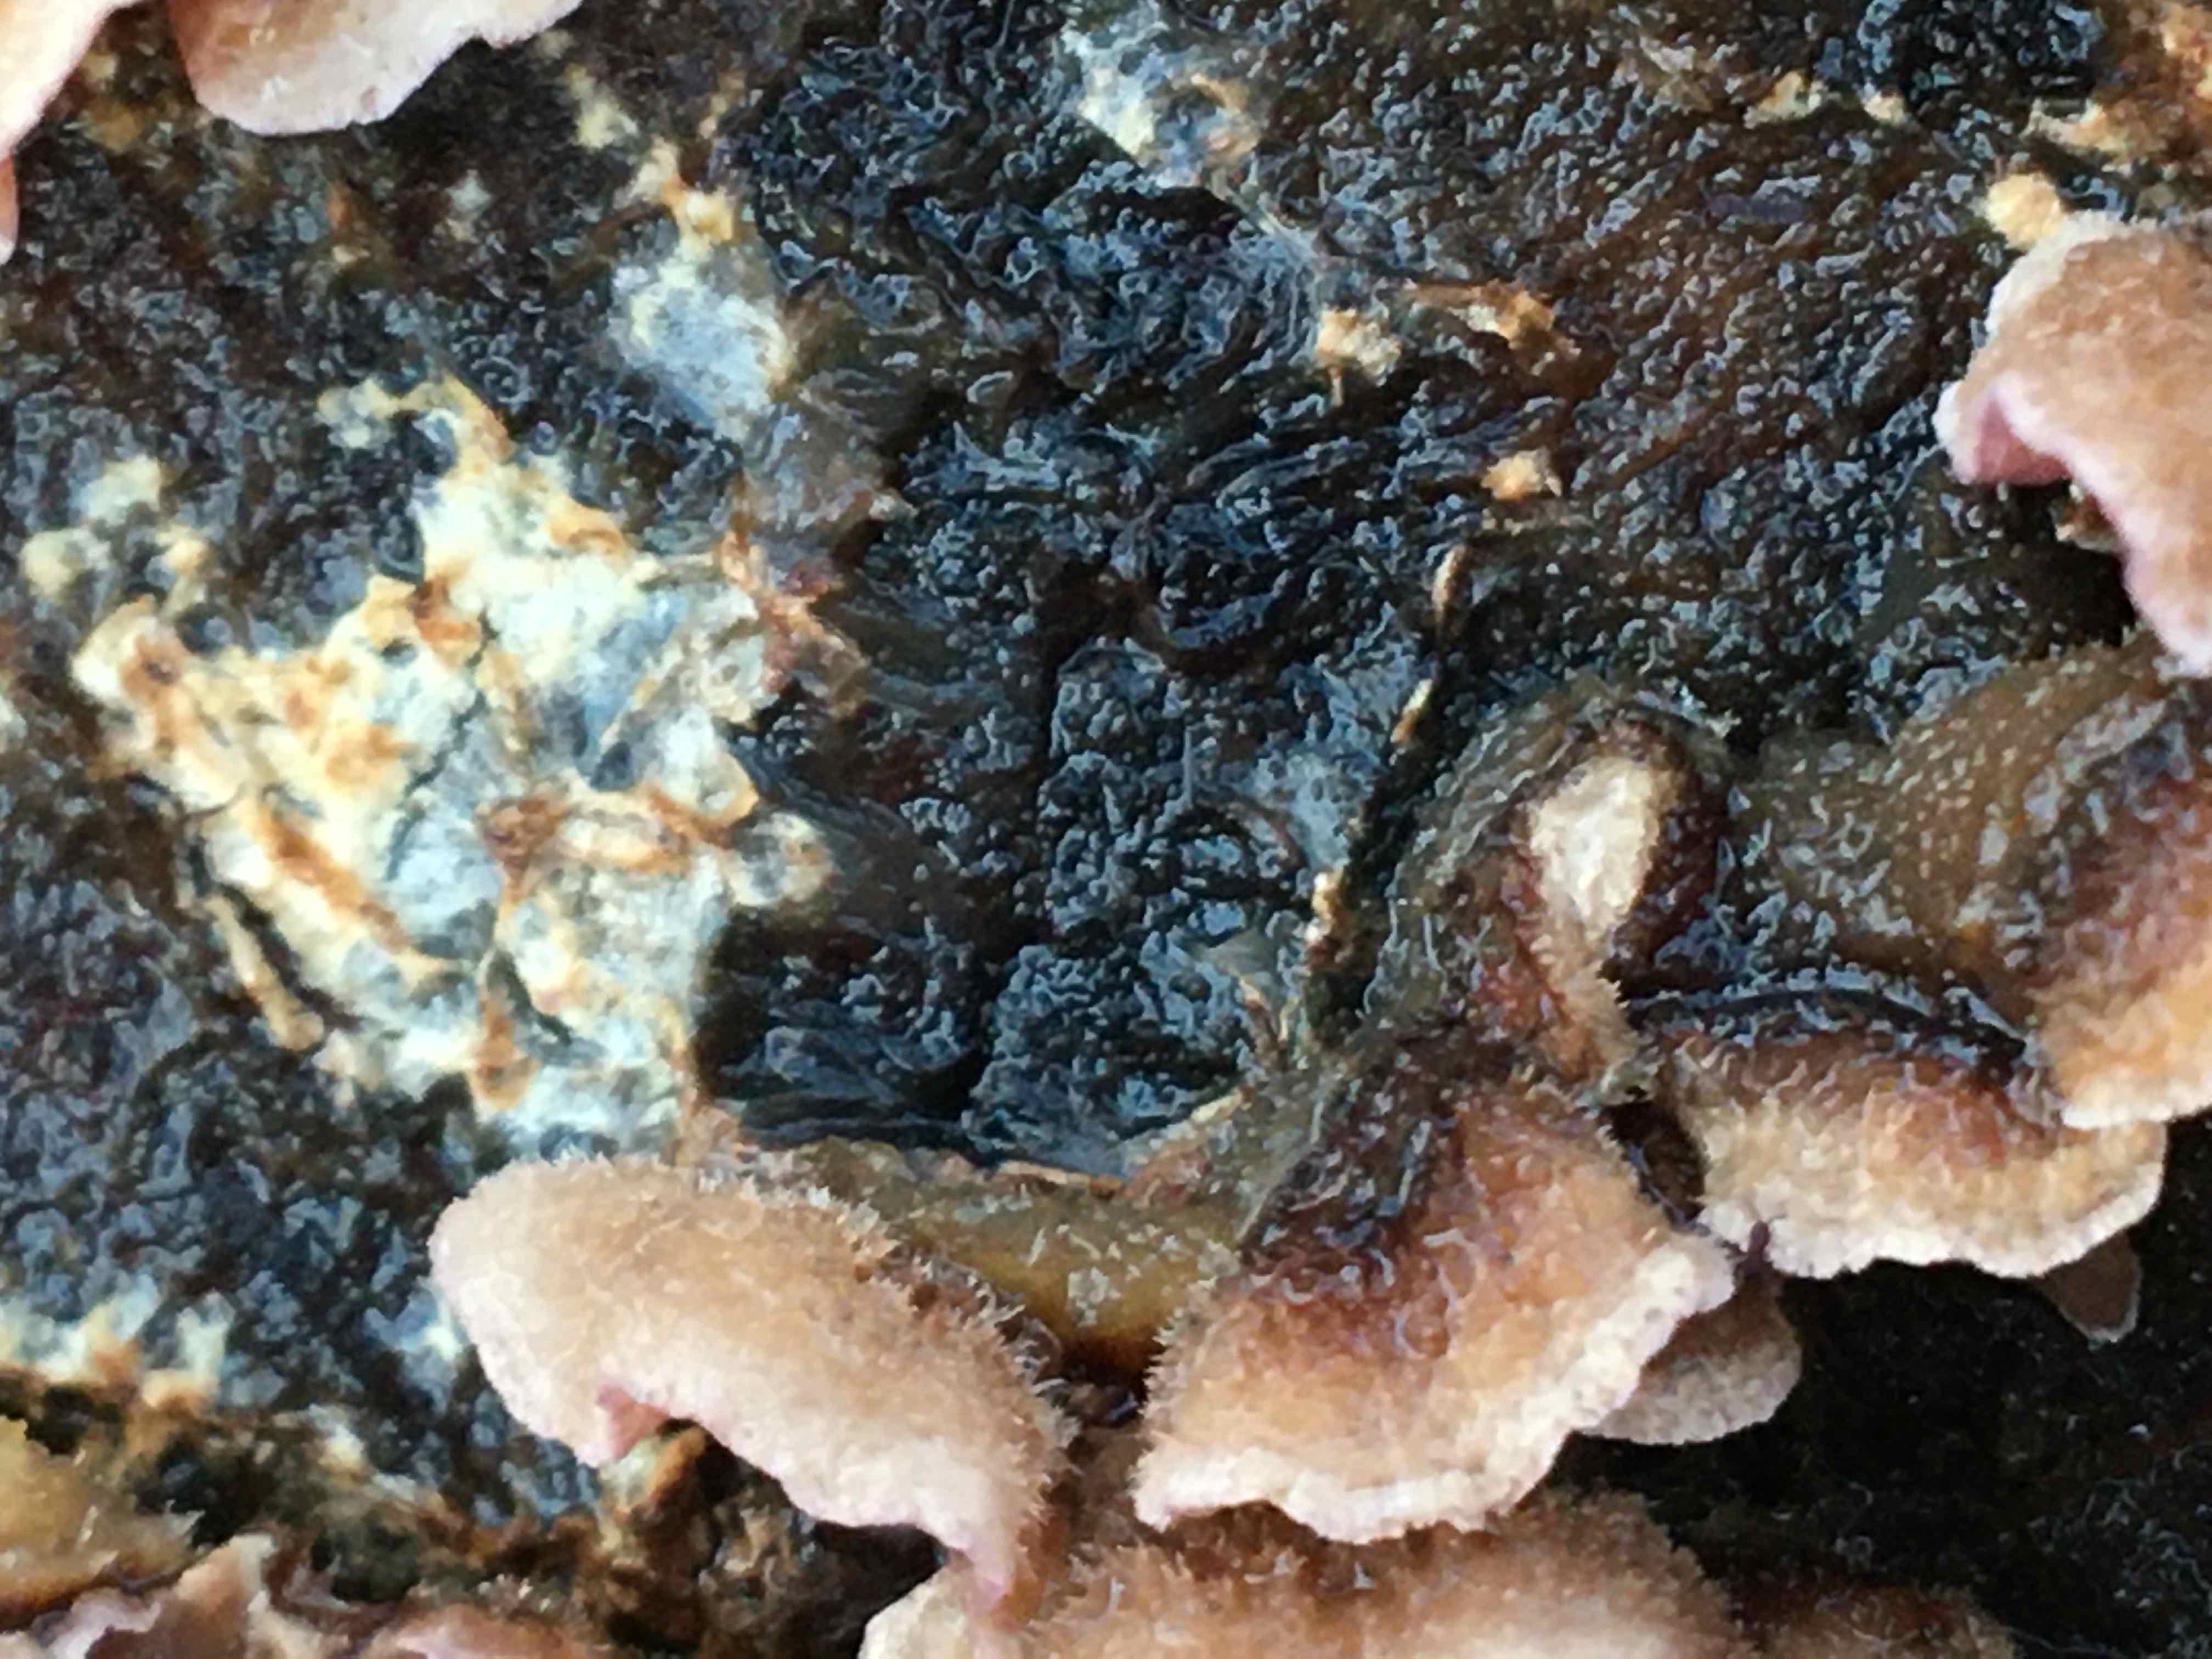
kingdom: Fungi
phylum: Basidiomycota
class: Agaricomycetes
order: Agaricales
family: Cyphellaceae
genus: Chondrostereum
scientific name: Chondrostereum purpureum
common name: purpurlædersvamp
